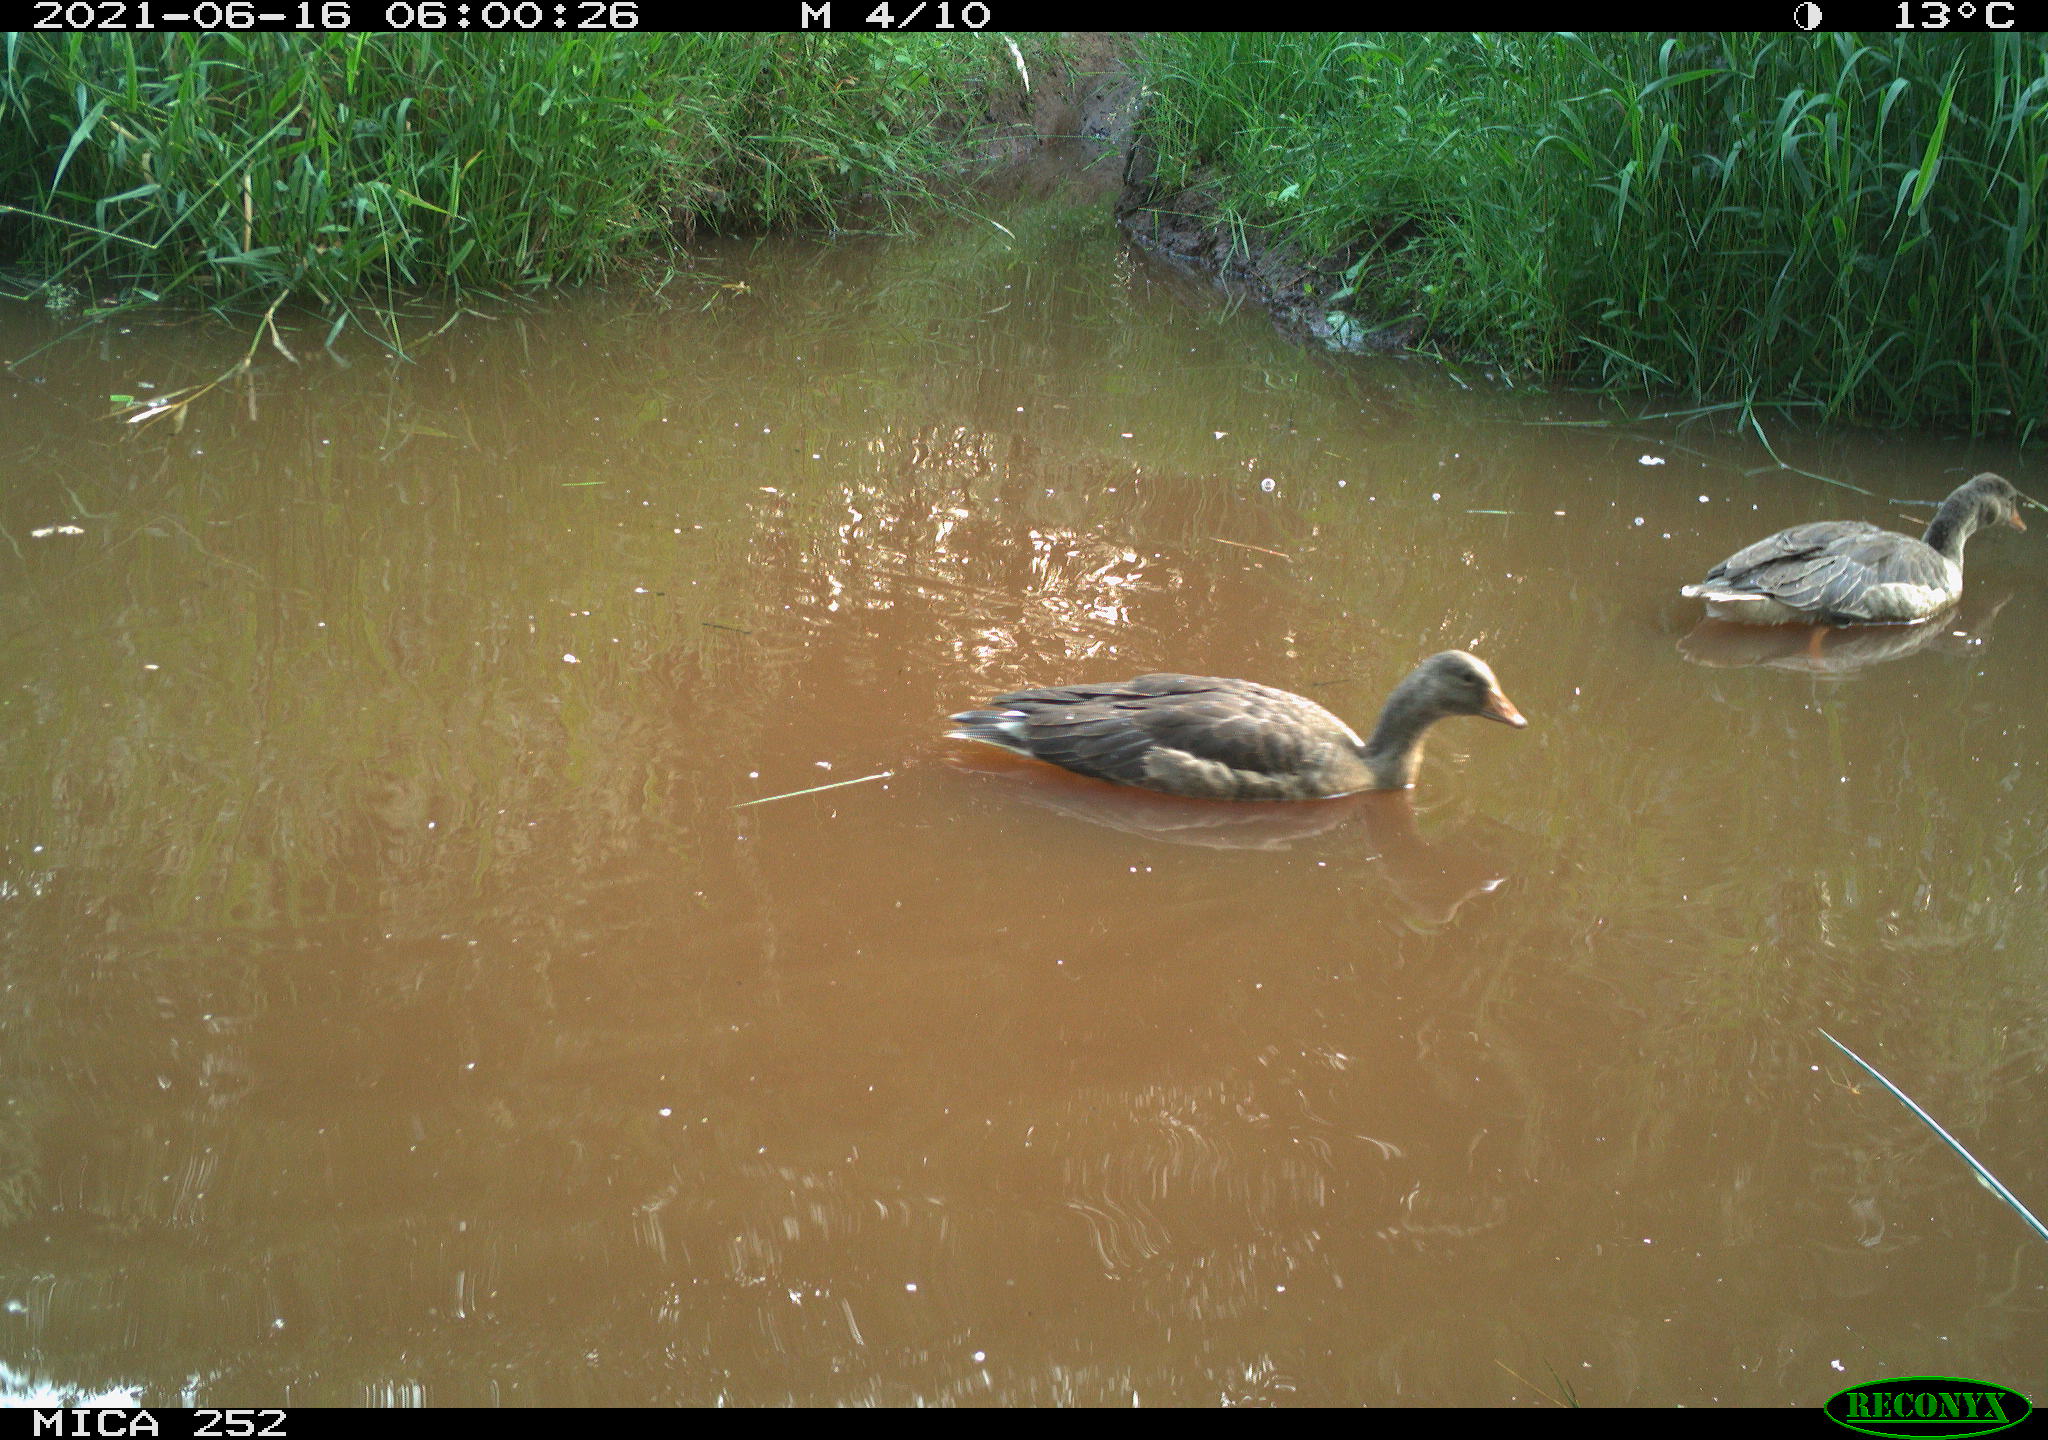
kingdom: Animalia
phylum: Chordata
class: Aves
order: Anseriformes
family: Anatidae
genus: Anser
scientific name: Anser anser
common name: Greylag goose
